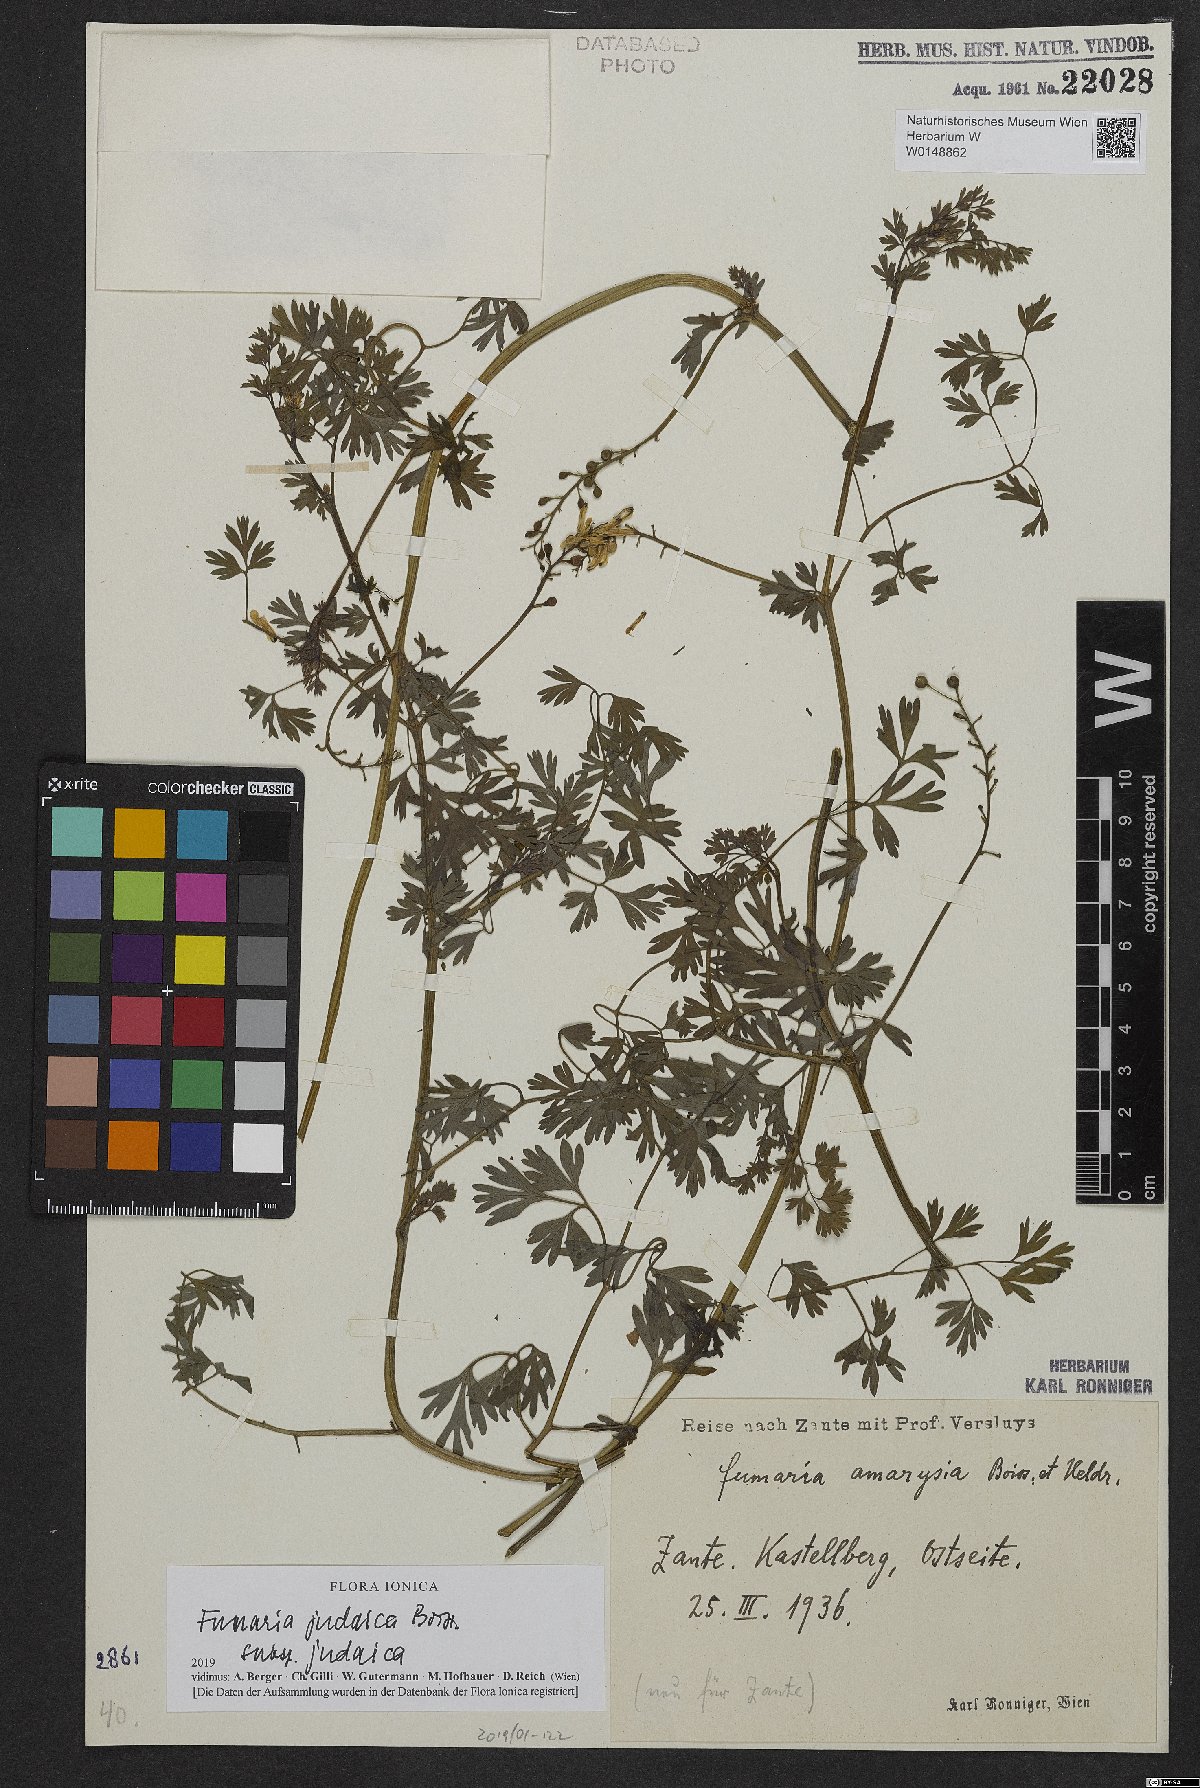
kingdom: Plantae
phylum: Tracheophyta
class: Magnoliopsida
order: Ranunculales
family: Papaveraceae
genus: Fumaria
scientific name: Fumaria judaica
